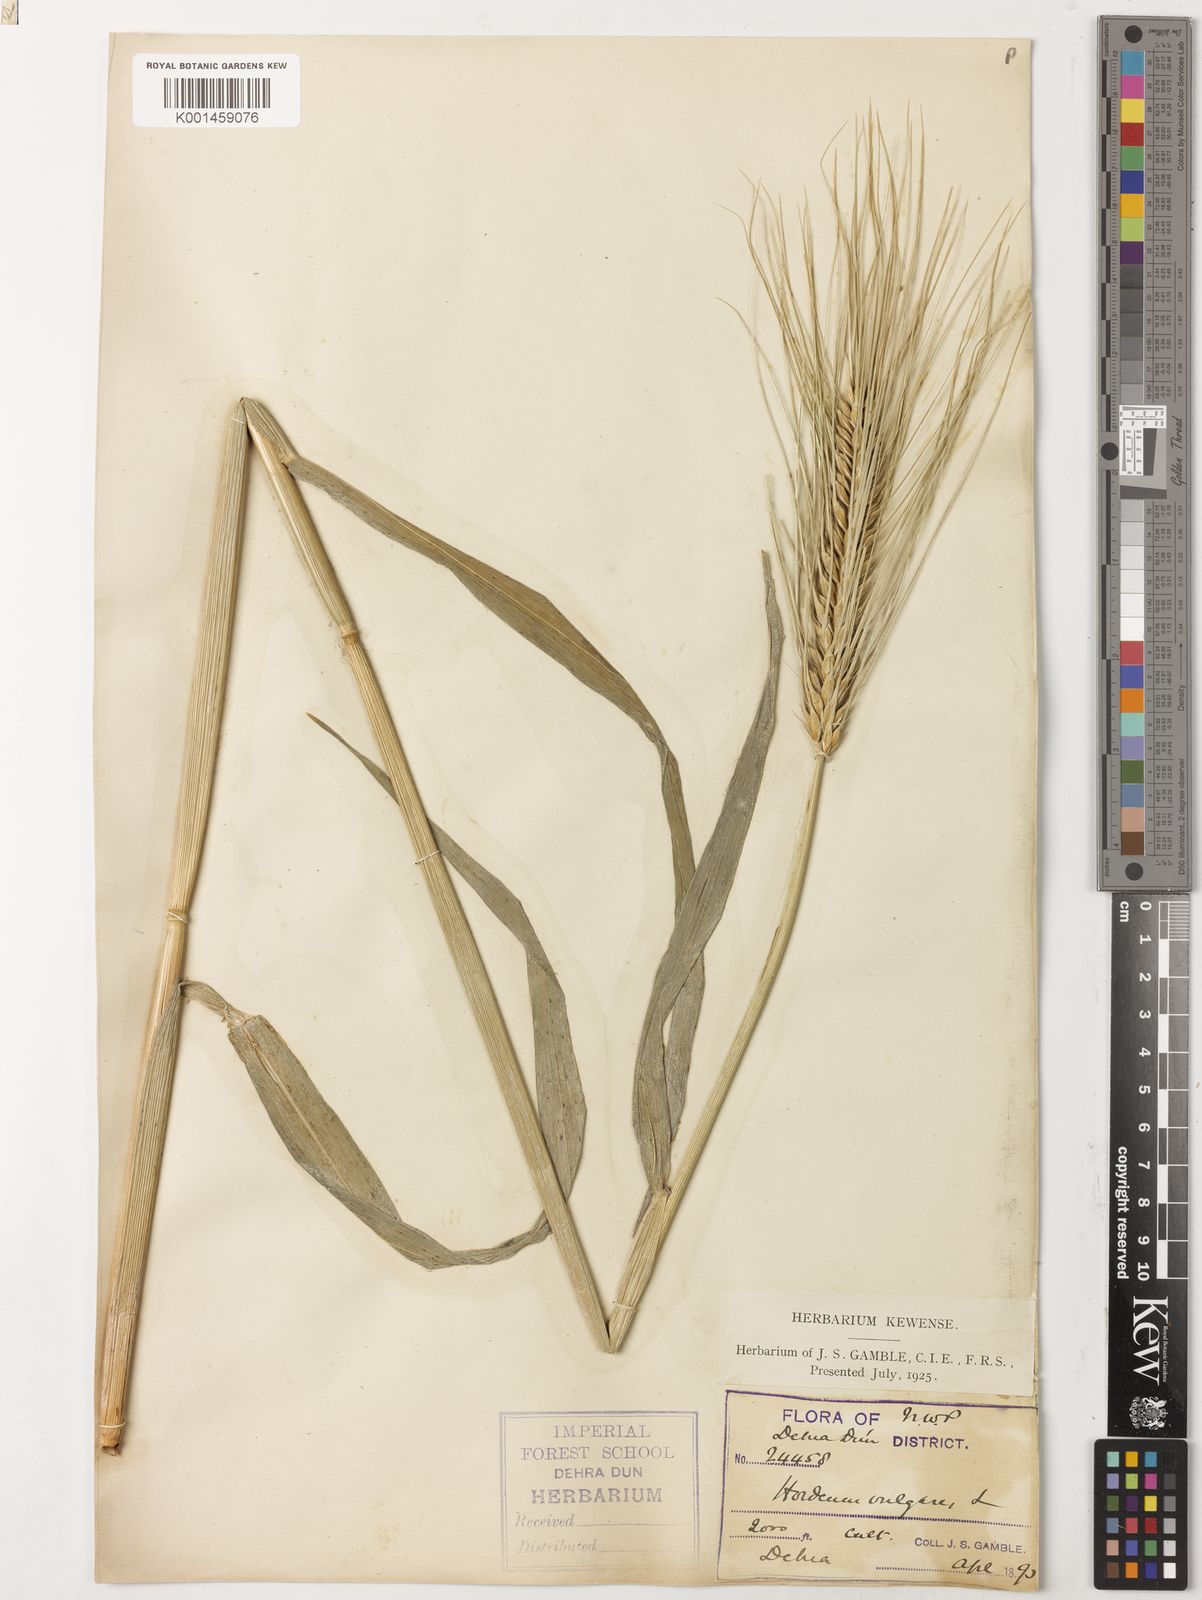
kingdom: Plantae
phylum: Tracheophyta
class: Liliopsida
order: Poales
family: Poaceae
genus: Hordeum
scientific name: Hordeum vulgare
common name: Common barley
